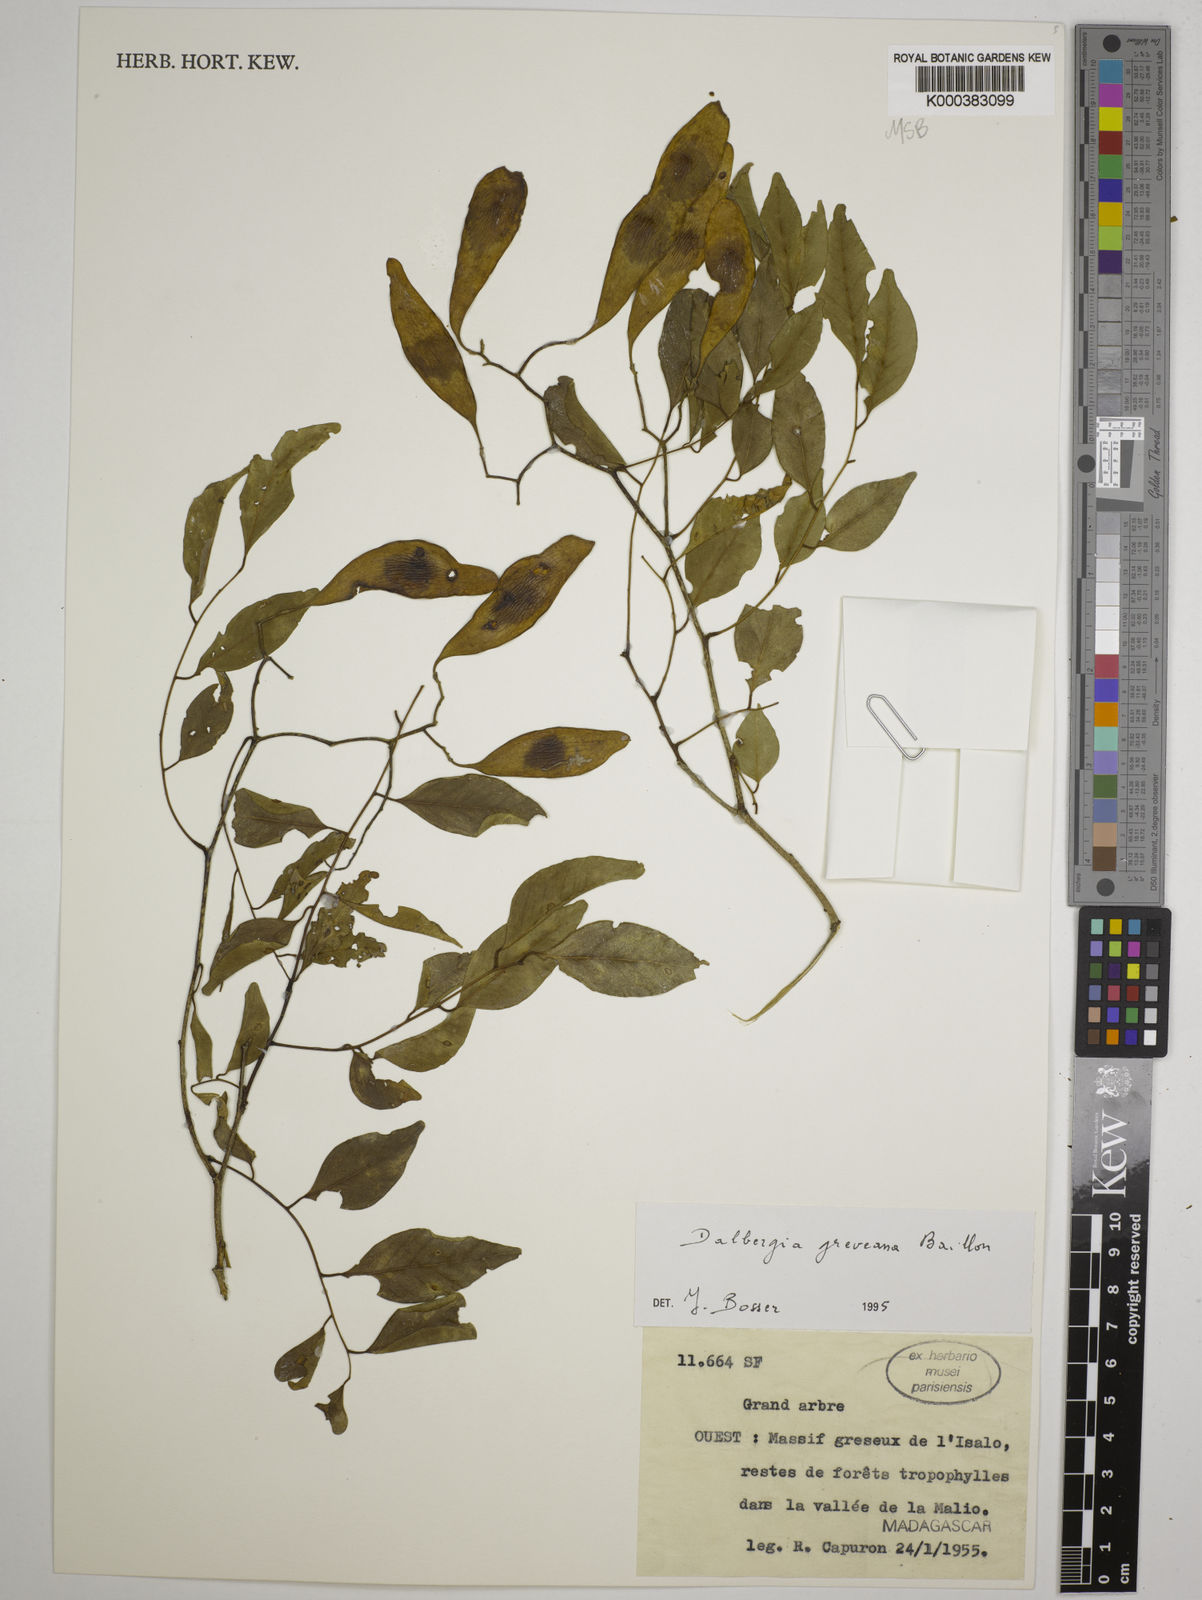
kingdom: Plantae
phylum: Tracheophyta
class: Magnoliopsida
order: Fabales
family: Fabaceae
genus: Dalbergia
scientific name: Dalbergia greveana
